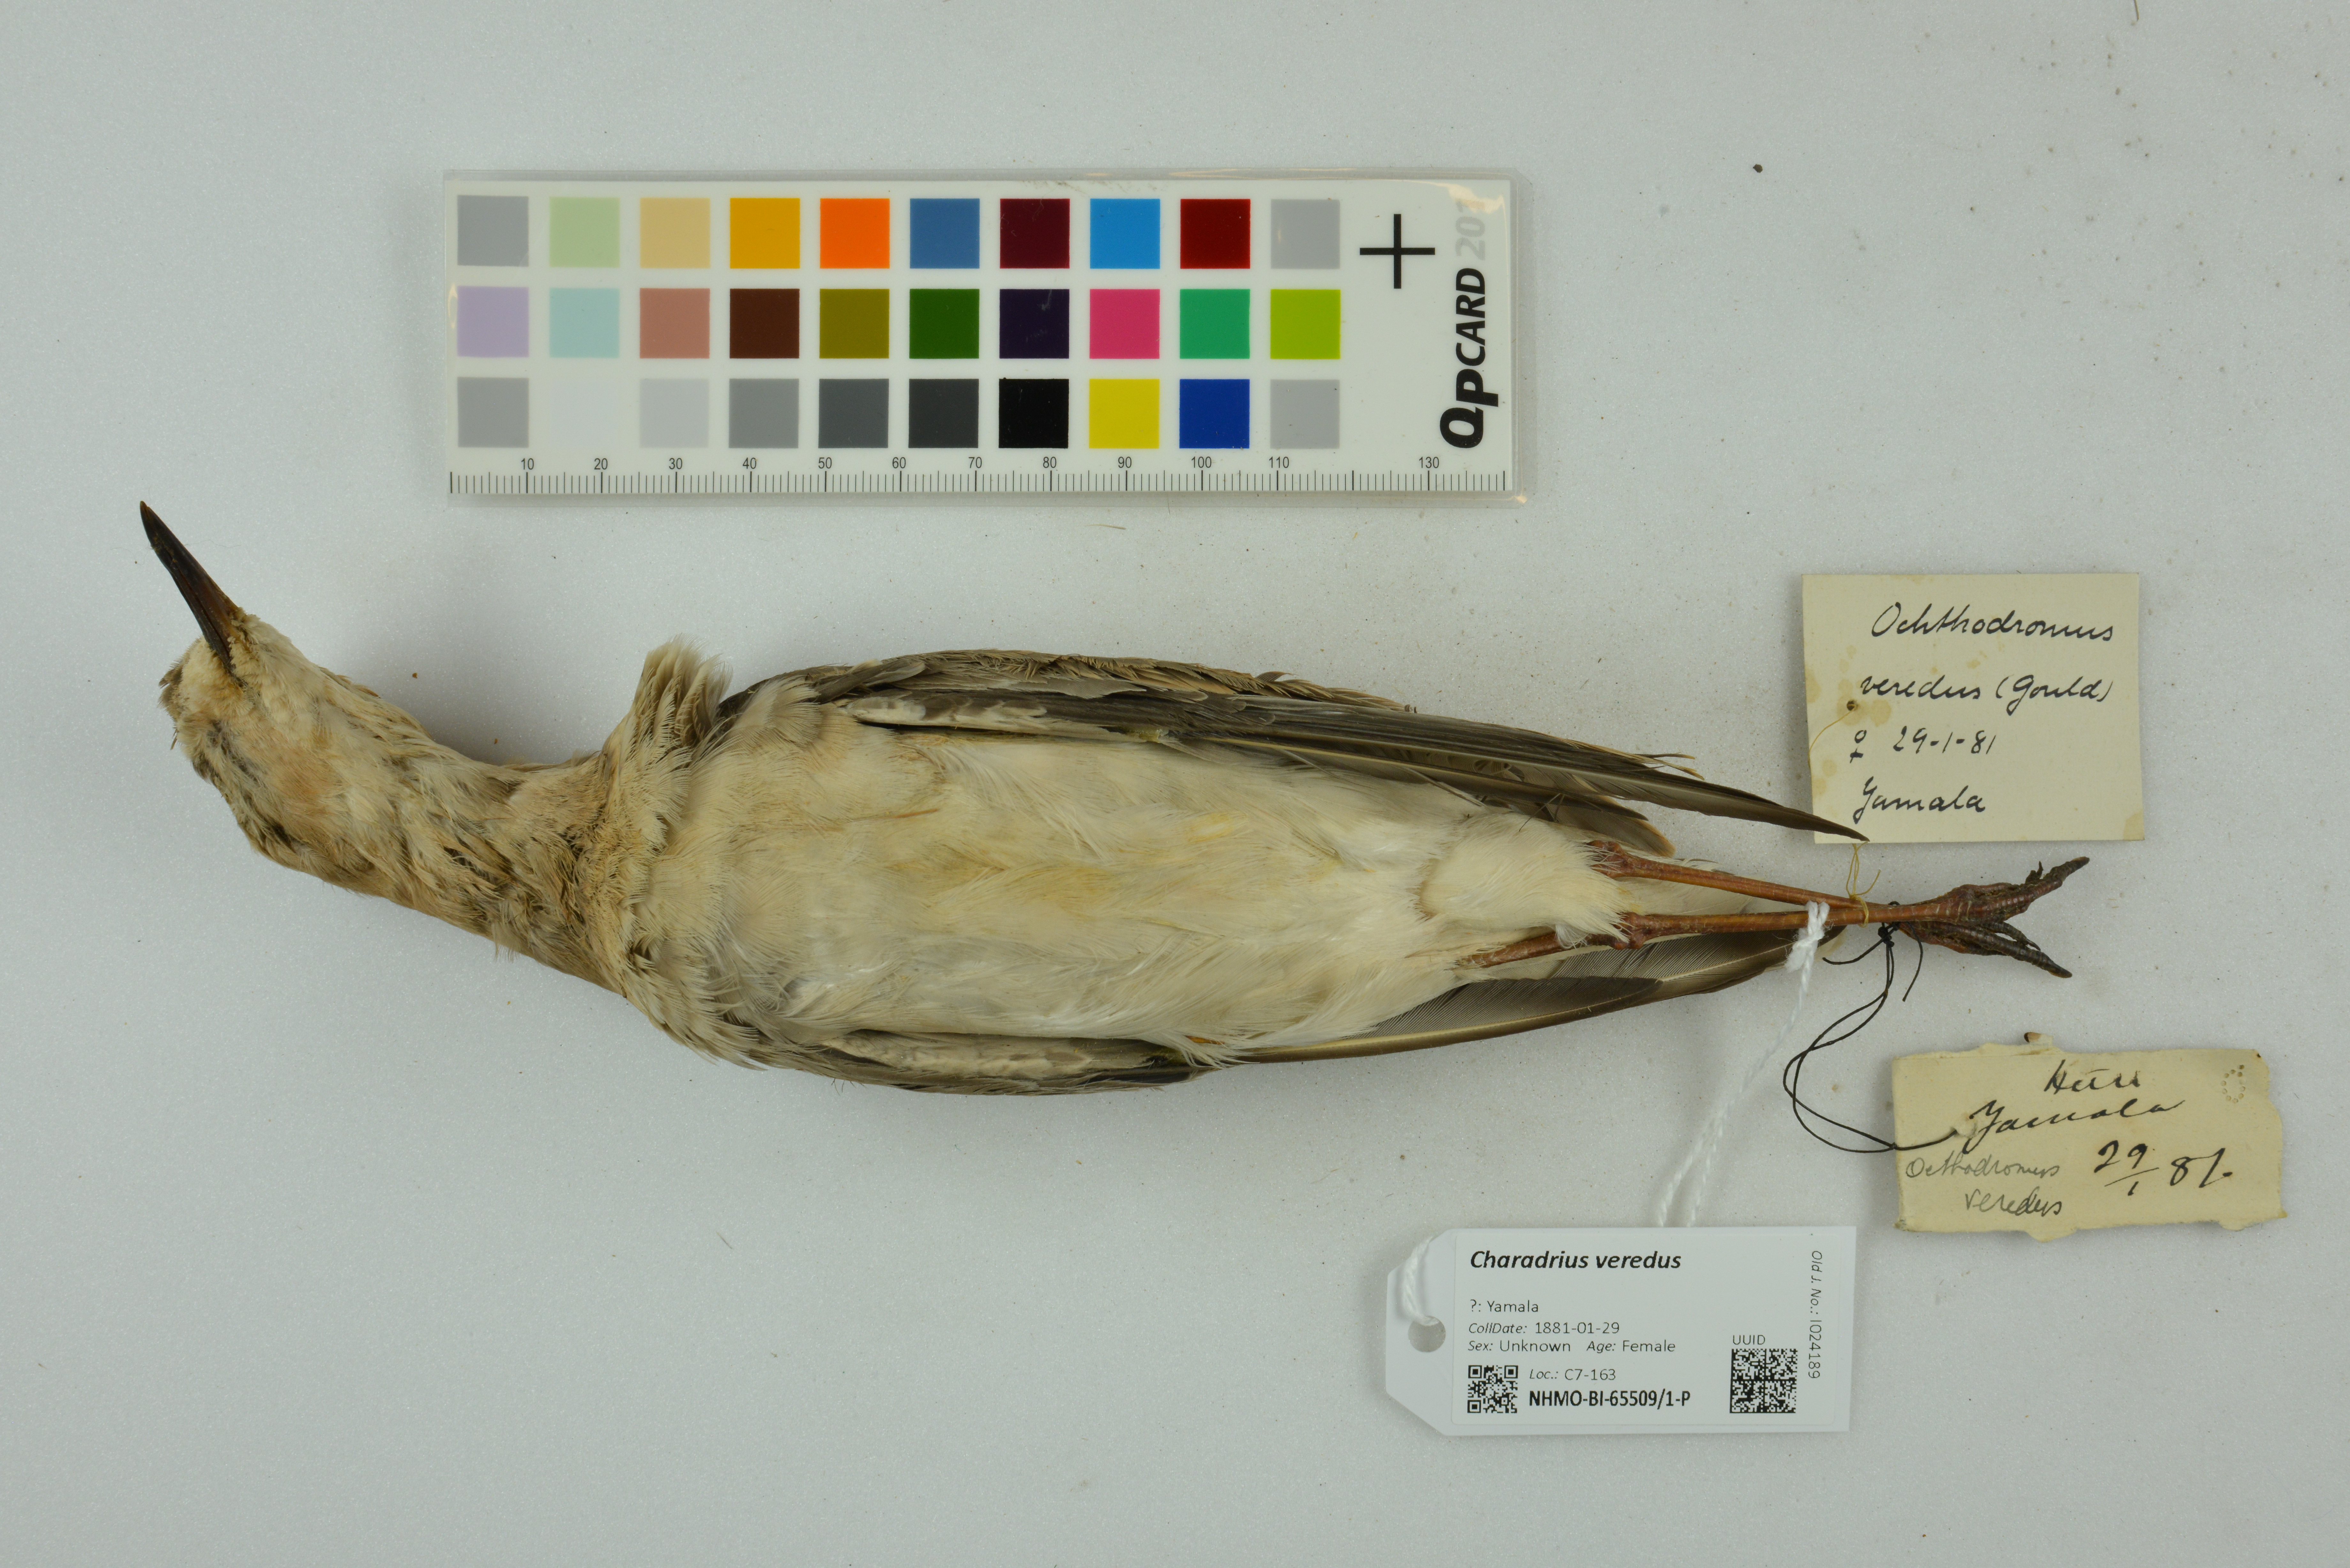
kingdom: Animalia
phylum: Chordata
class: Aves
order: Charadriiformes
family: Charadriidae
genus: Charadrius
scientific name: Charadrius veredus
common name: Oriental plover
